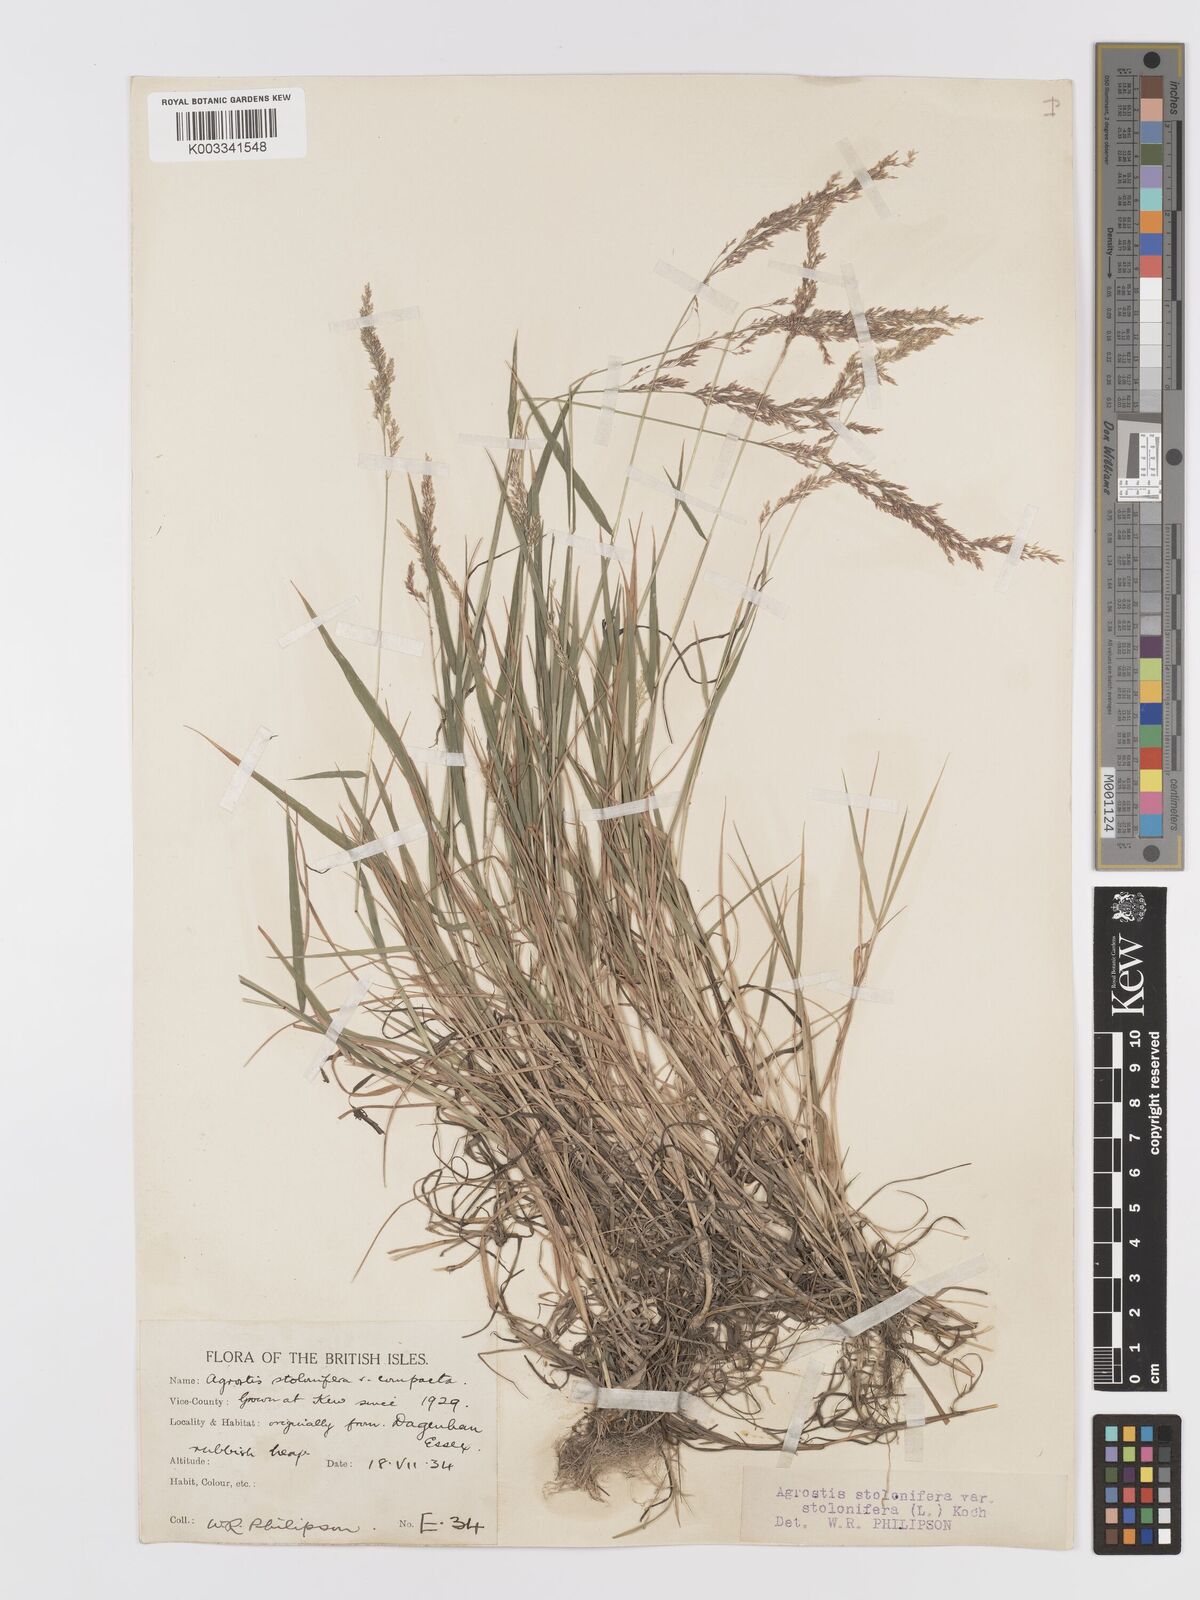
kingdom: Plantae
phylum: Tracheophyta
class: Liliopsida
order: Poales
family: Poaceae
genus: Agrostis
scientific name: Agrostis stolonifera
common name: Creeping bentgrass
